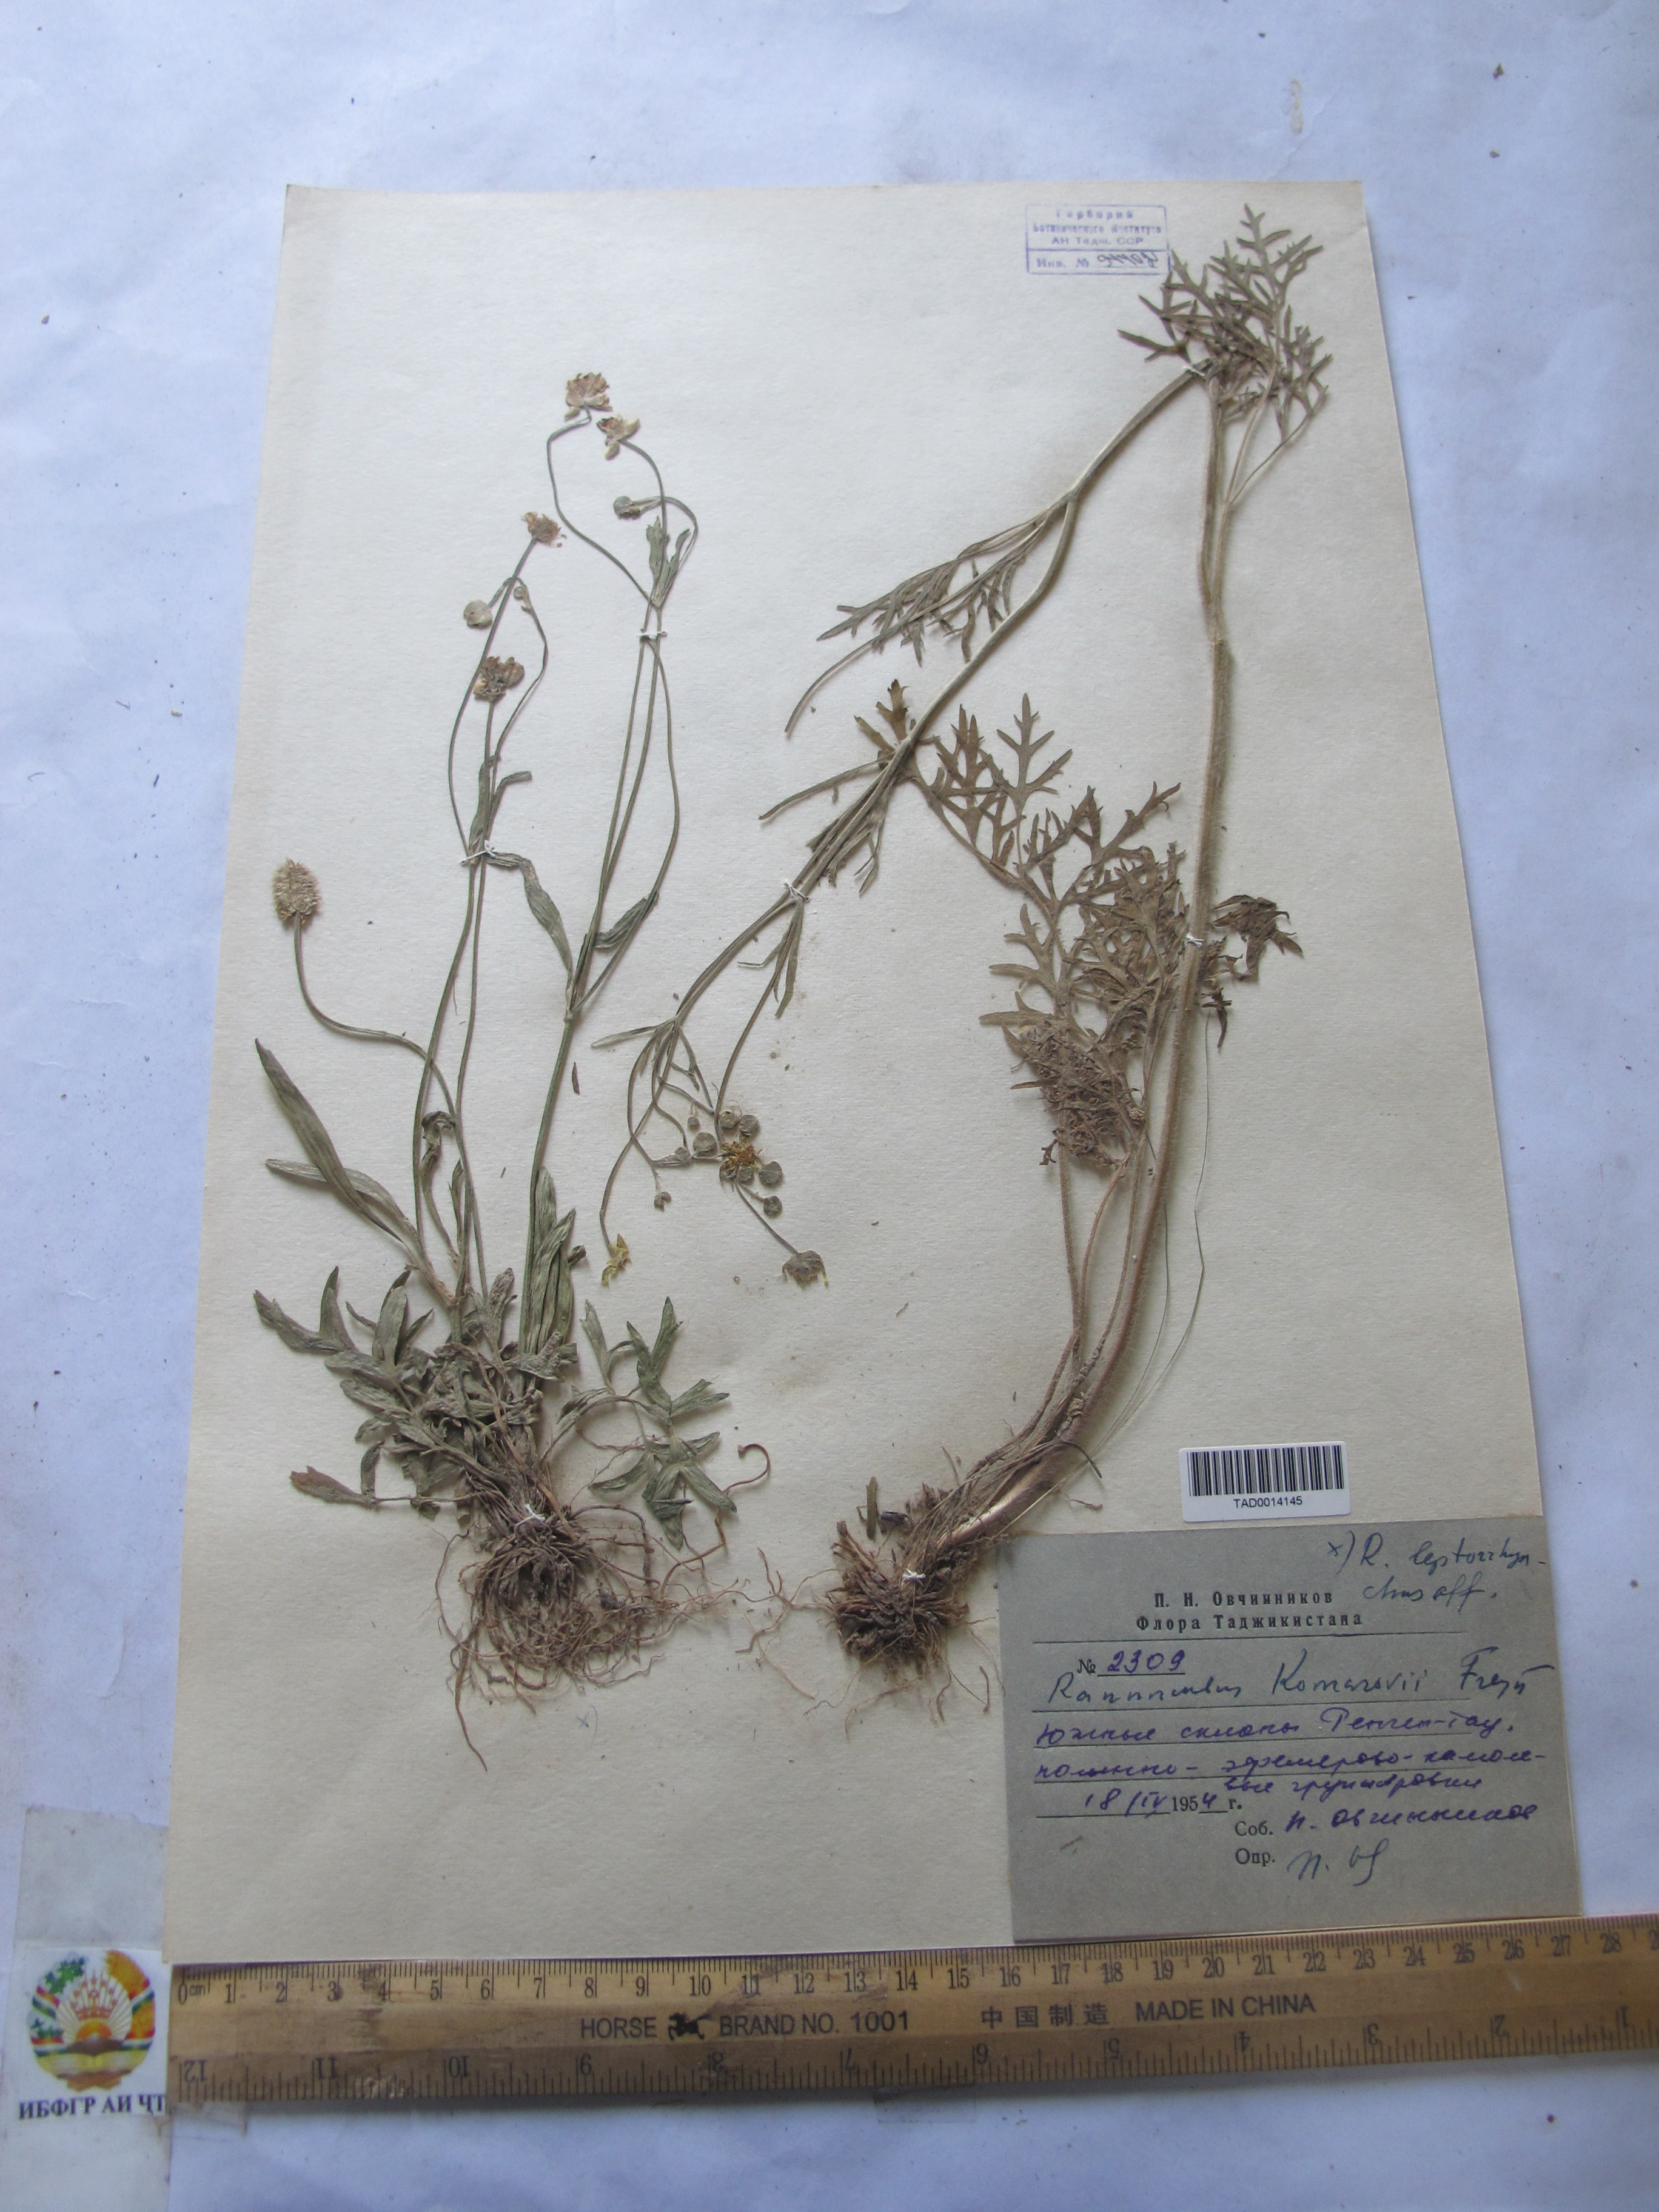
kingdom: Plantae
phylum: Tracheophyta
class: Magnoliopsida
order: Ranunculales
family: Ranunculaceae
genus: Ranunculus
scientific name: Ranunculus komarovii
